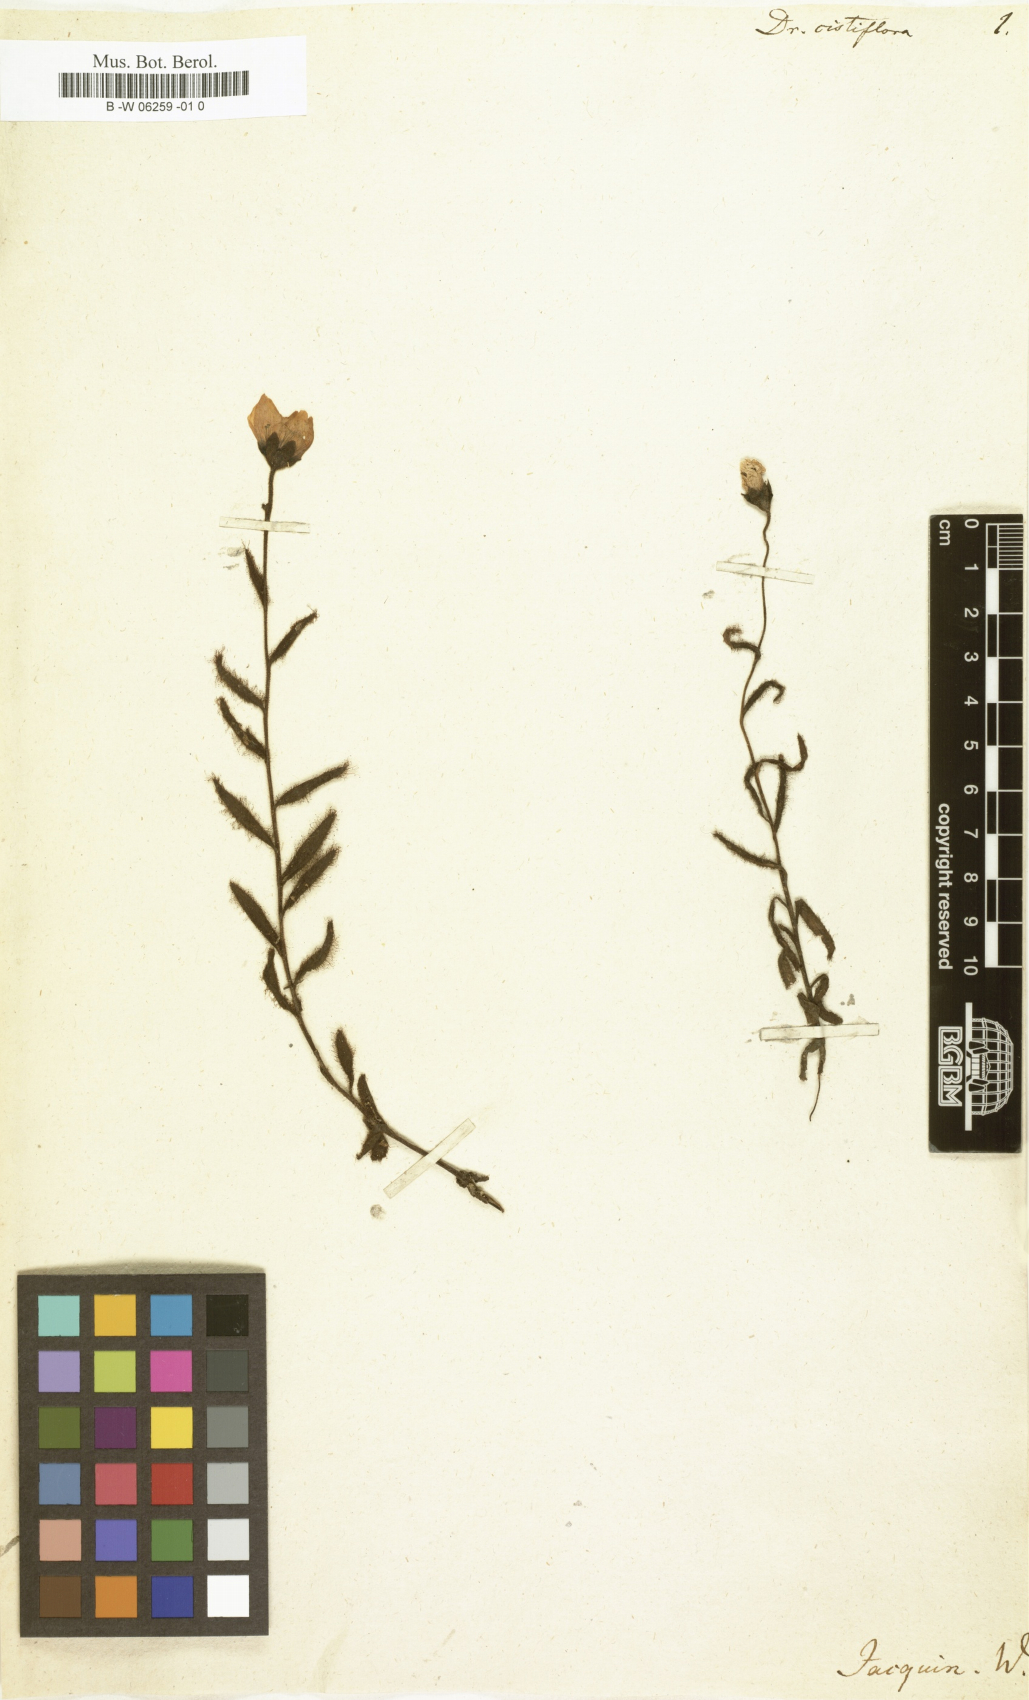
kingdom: Plantae
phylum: Tracheophyta
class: Magnoliopsida
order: Caryophyllales
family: Droseraceae
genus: Drosera
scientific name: Drosera cistiflora
